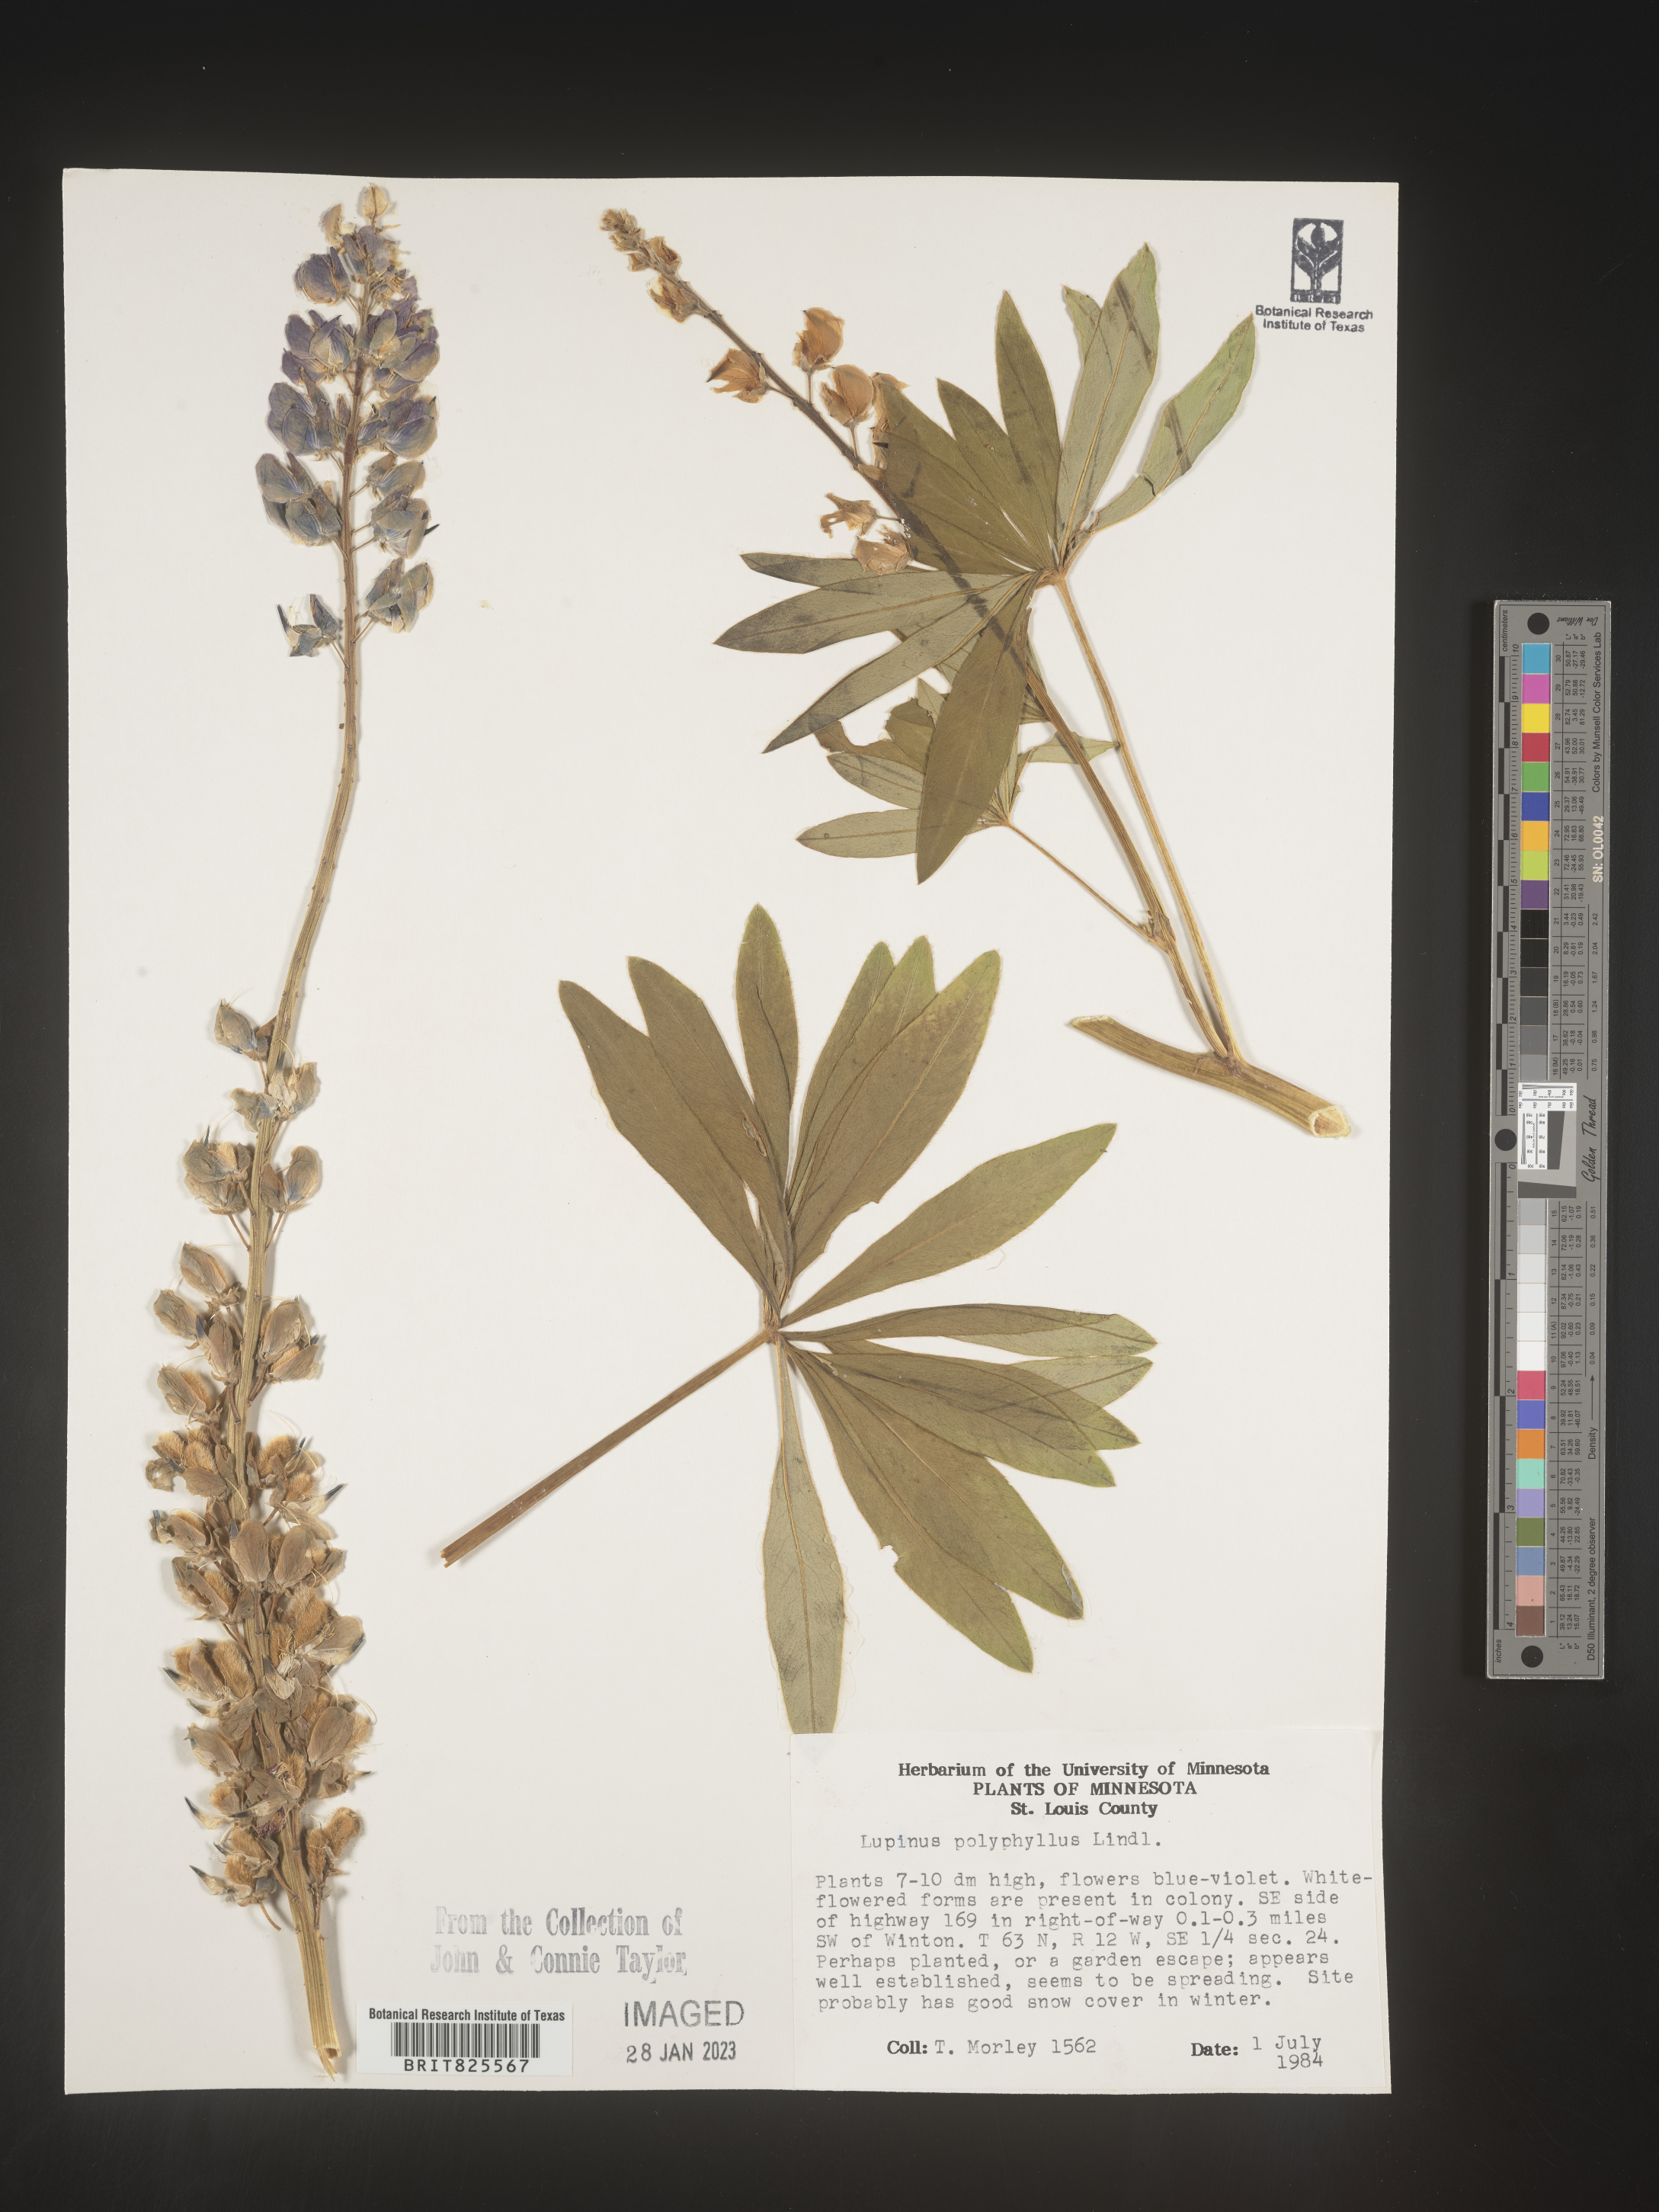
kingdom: Plantae
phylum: Tracheophyta
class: Magnoliopsida
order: Fabales
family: Fabaceae
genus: Lupinus
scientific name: Lupinus
